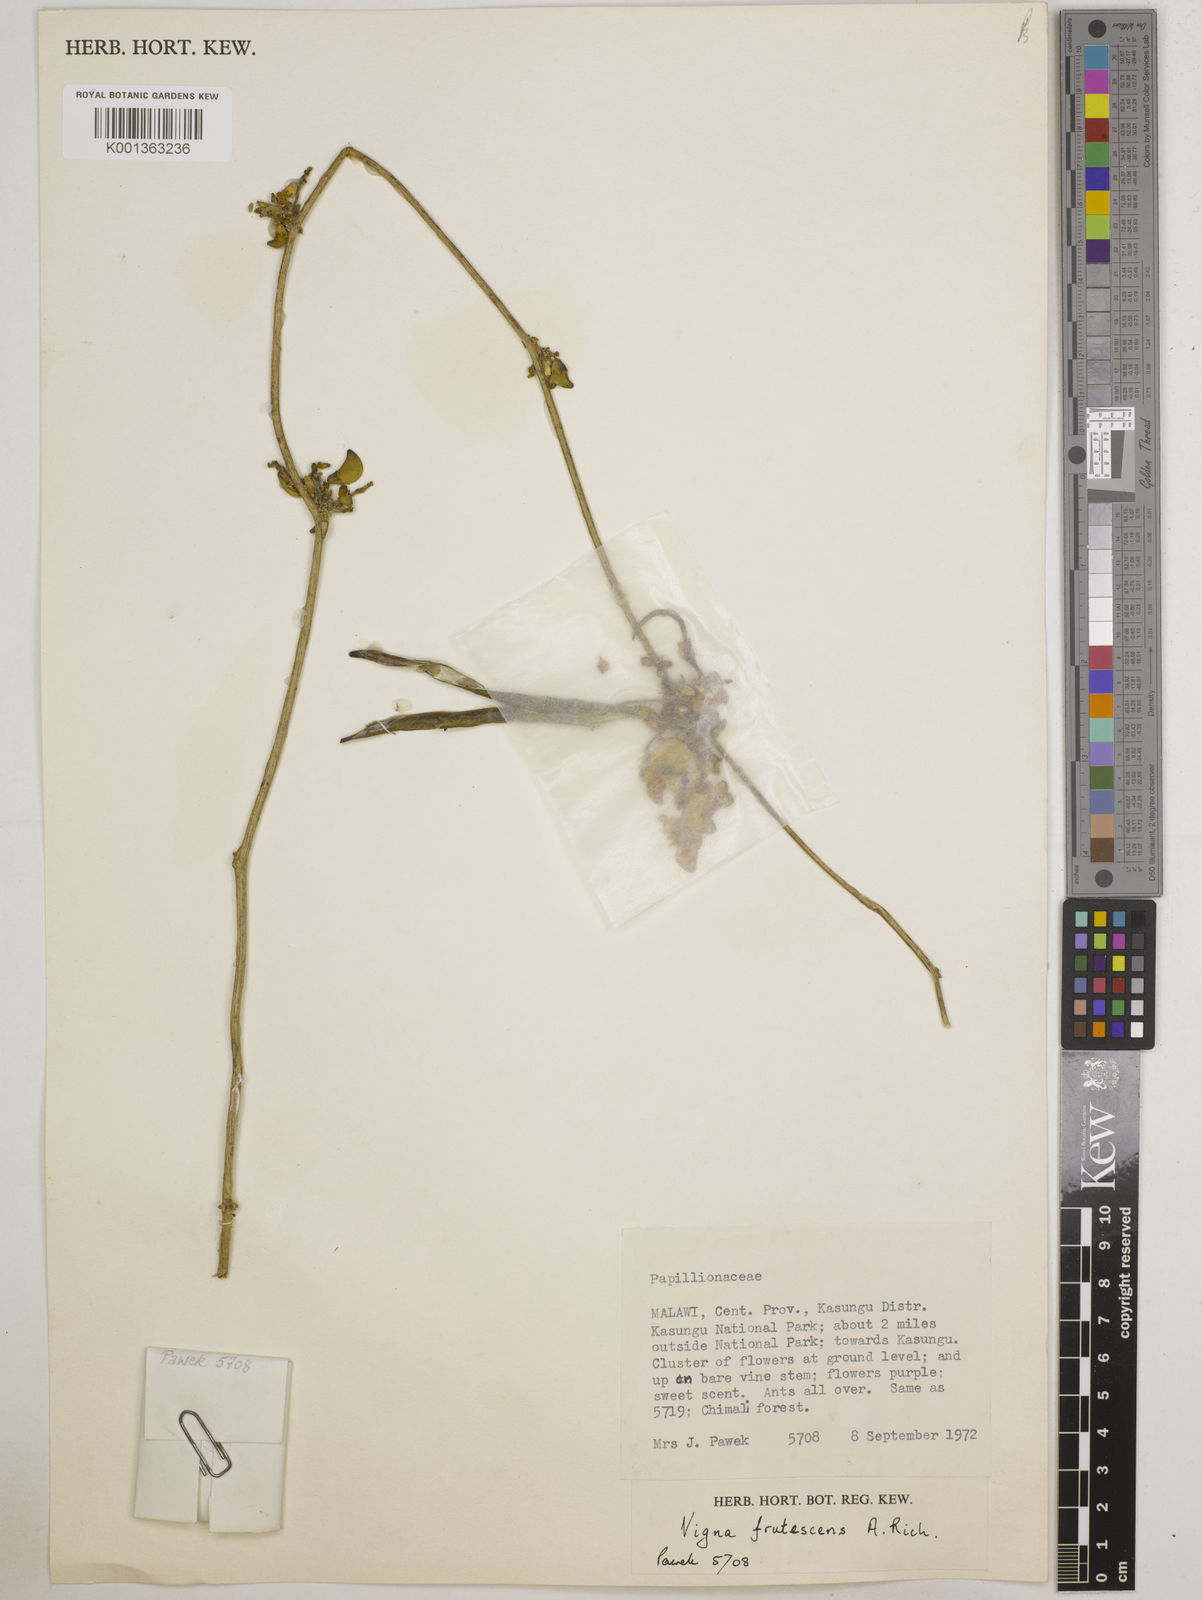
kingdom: Plantae
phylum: Tracheophyta
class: Magnoliopsida
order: Fabales
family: Fabaceae
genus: Vigna
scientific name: Vigna
